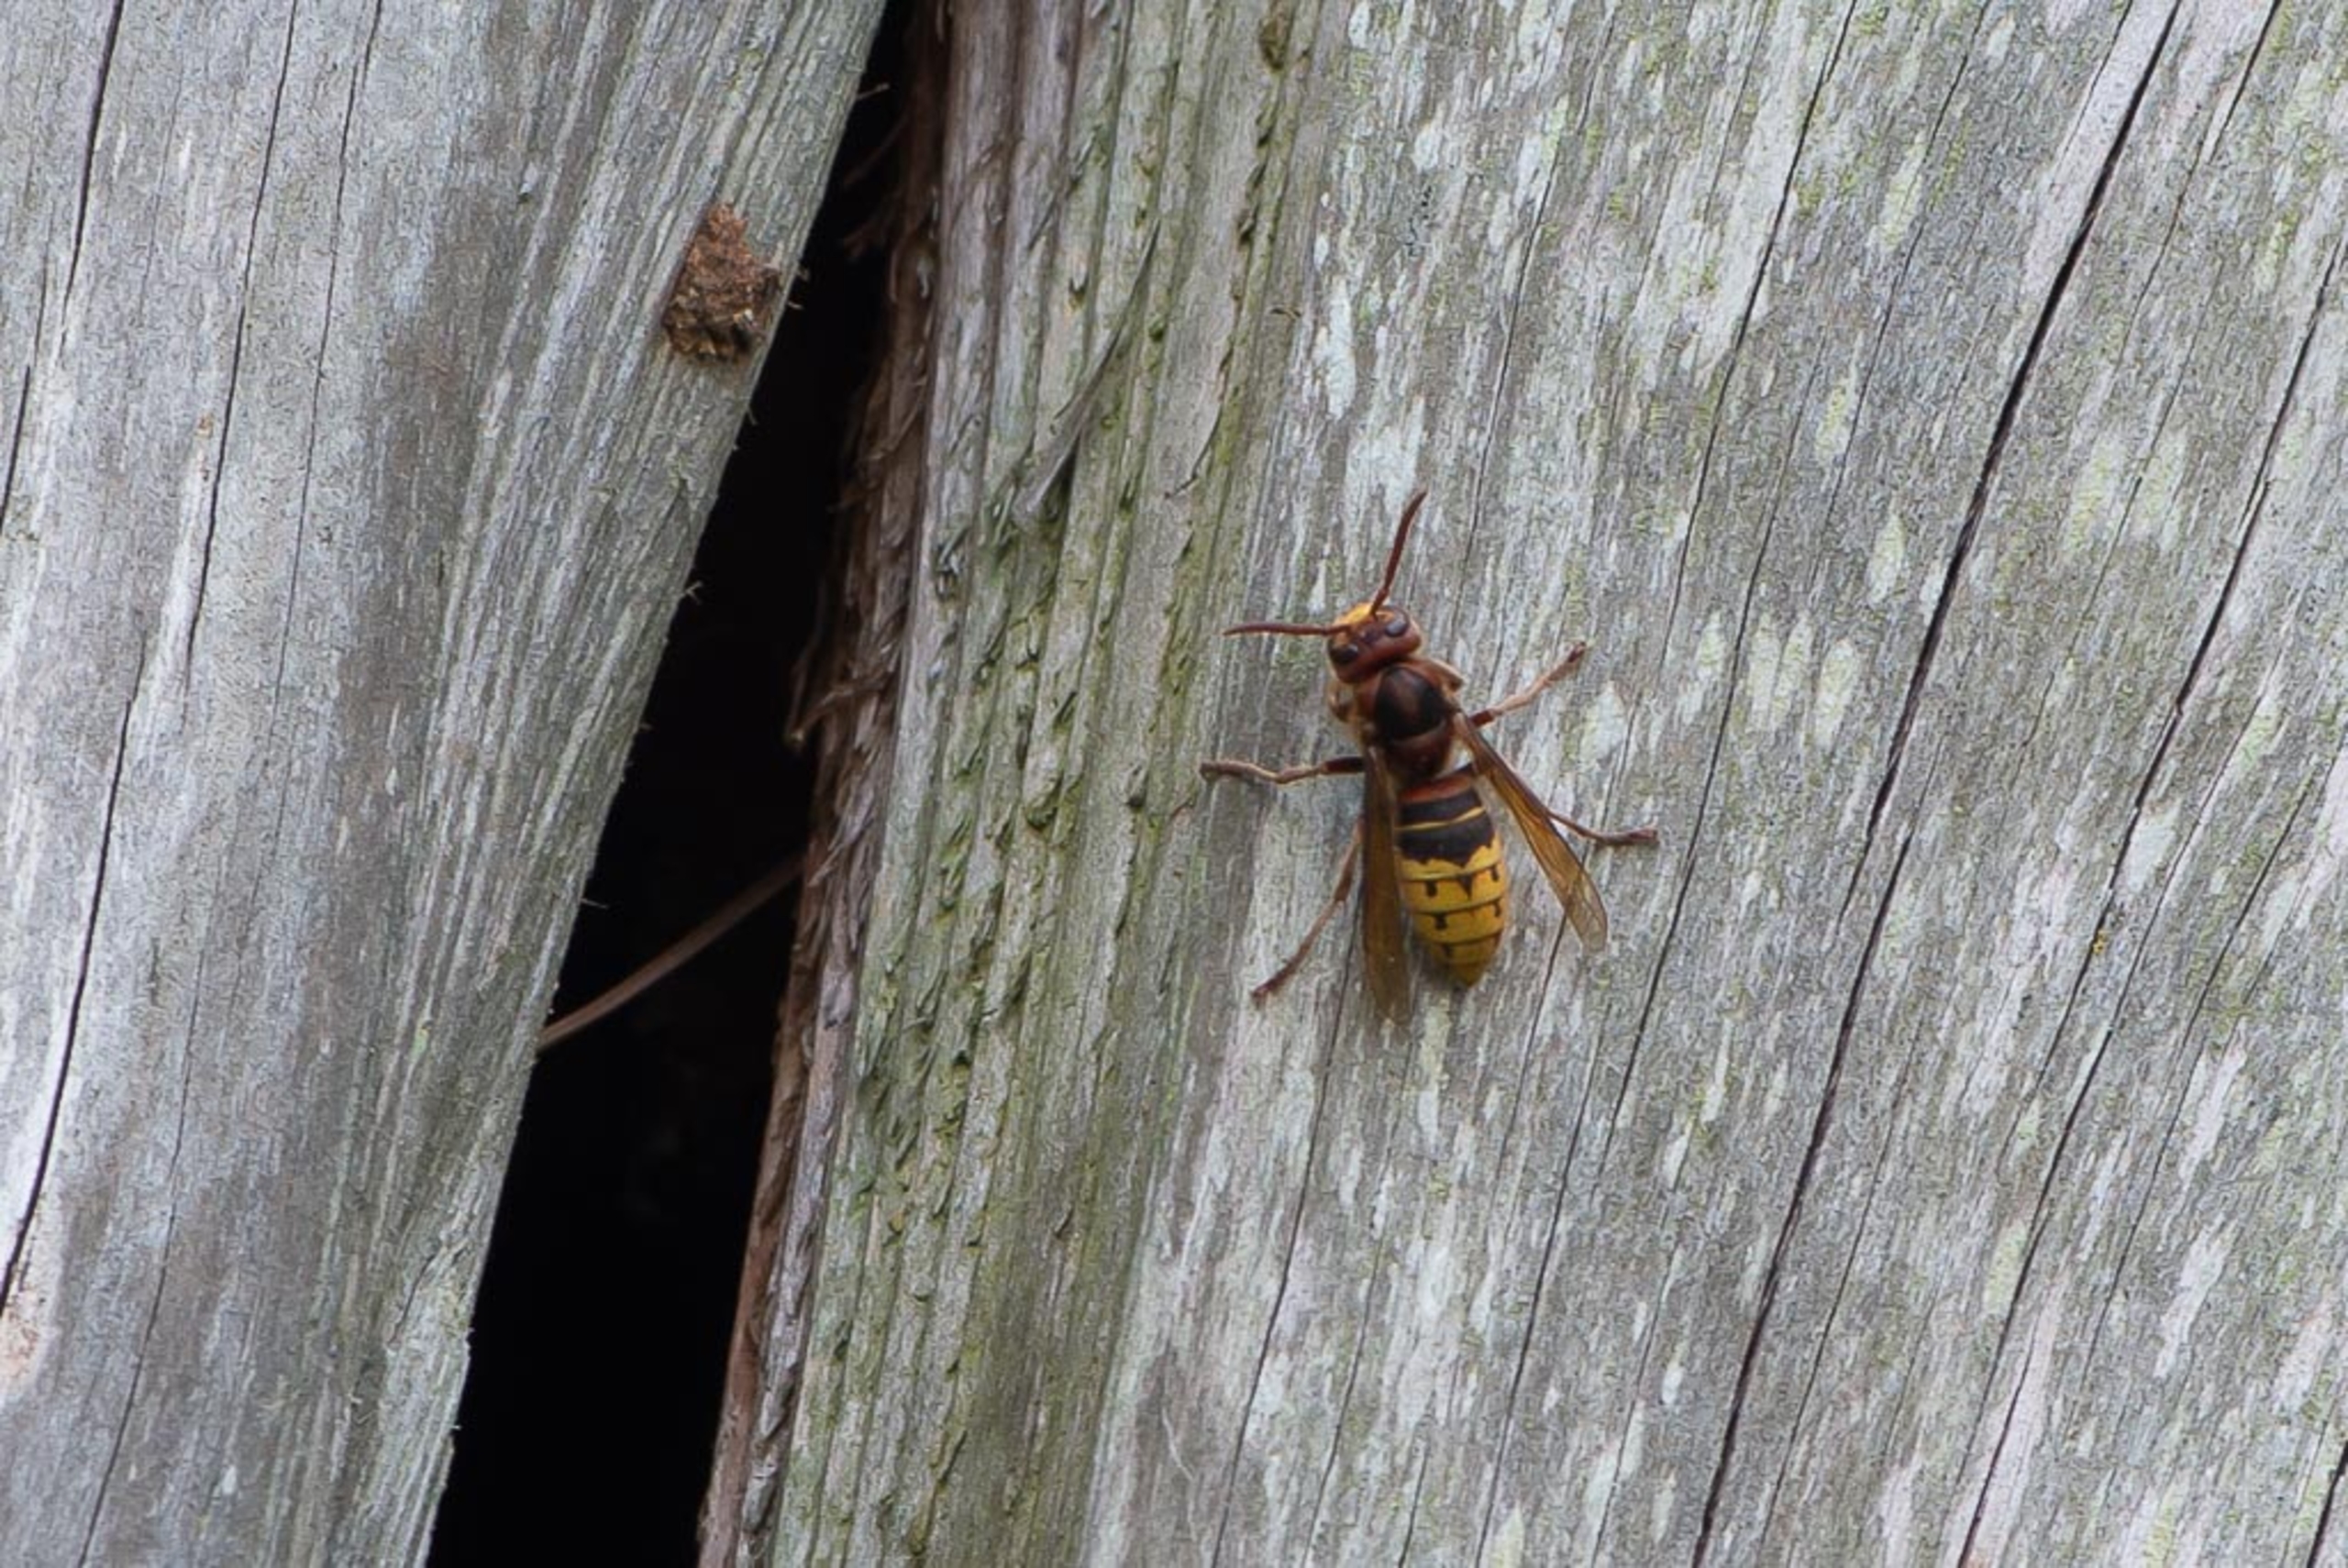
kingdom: Animalia
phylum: Arthropoda
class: Insecta
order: Hymenoptera
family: Vespidae
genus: Vespa
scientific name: Vespa crabro
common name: Stor gedehams
